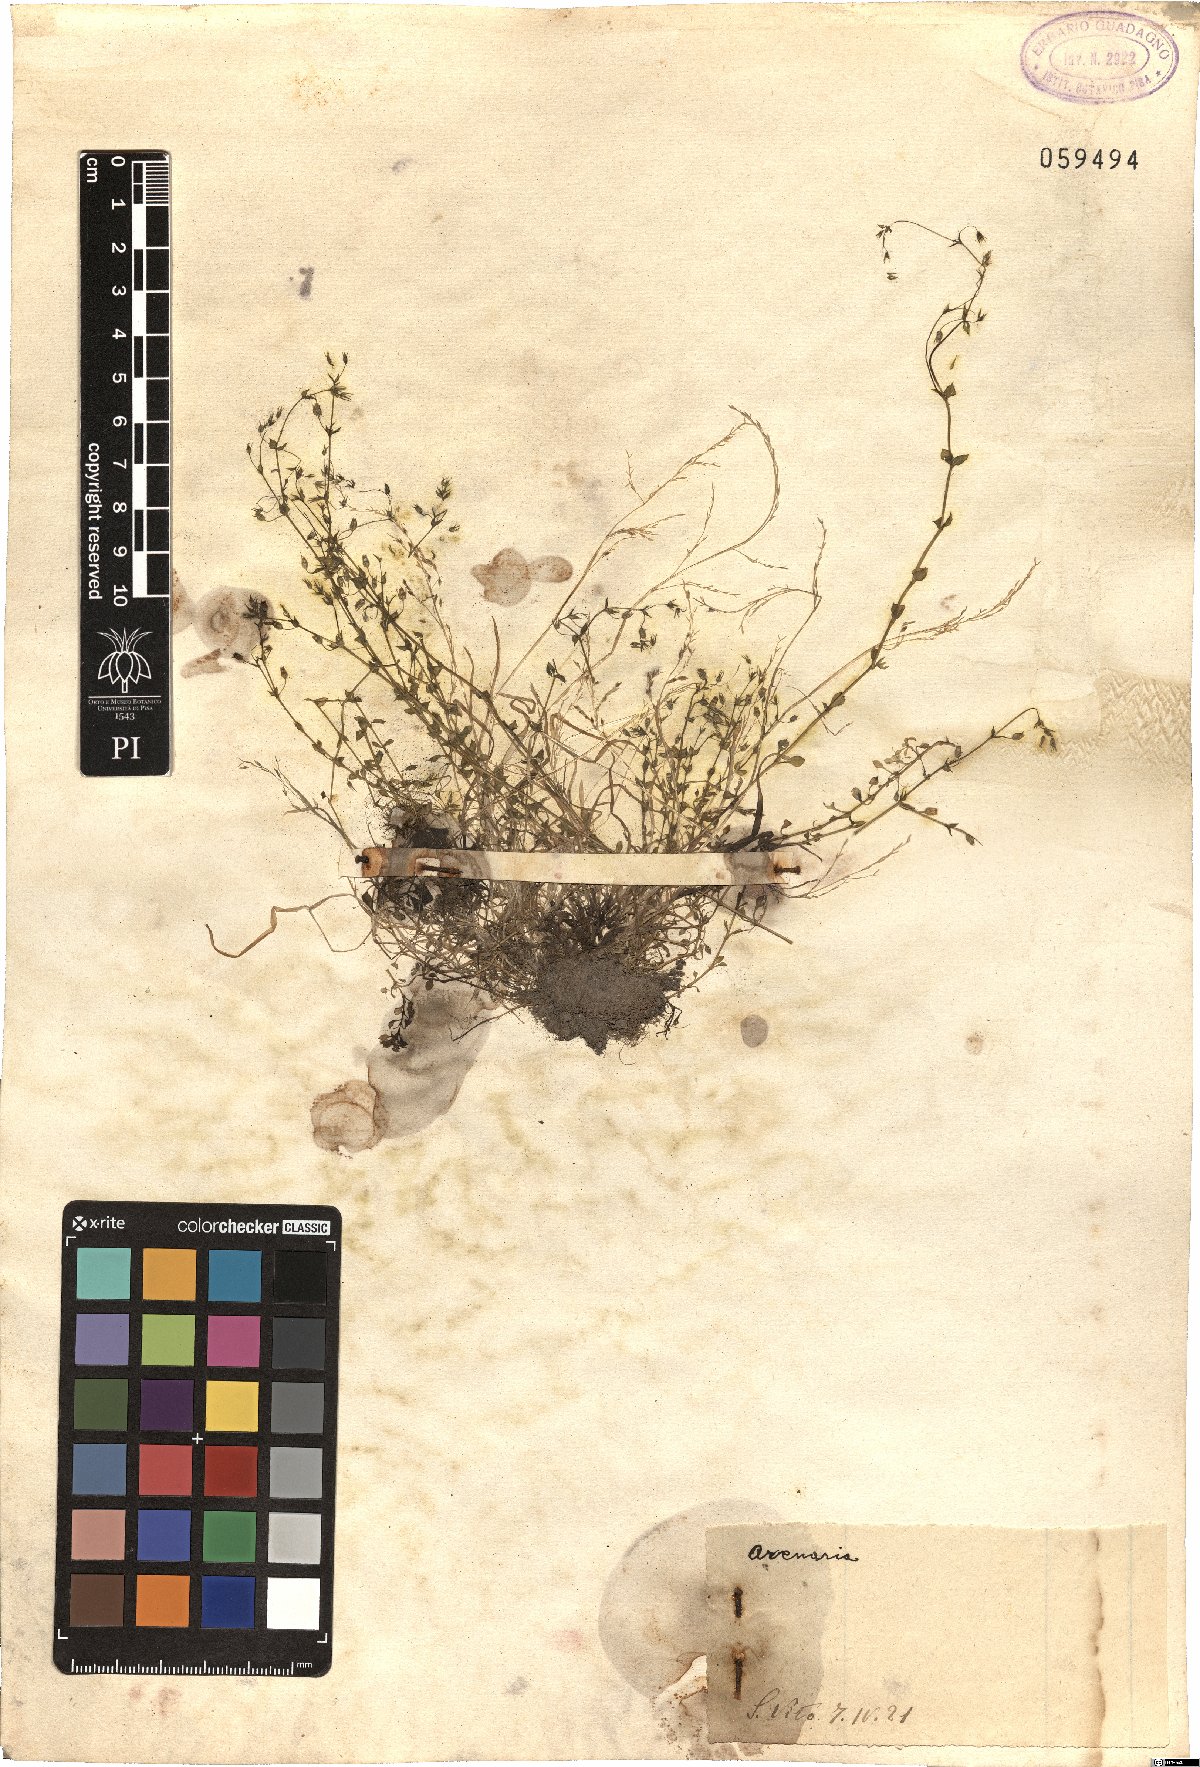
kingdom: Plantae
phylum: Tracheophyta
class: Magnoliopsida
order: Caryophyllales
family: Caryophyllaceae
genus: Arenaria
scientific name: Arenaria
